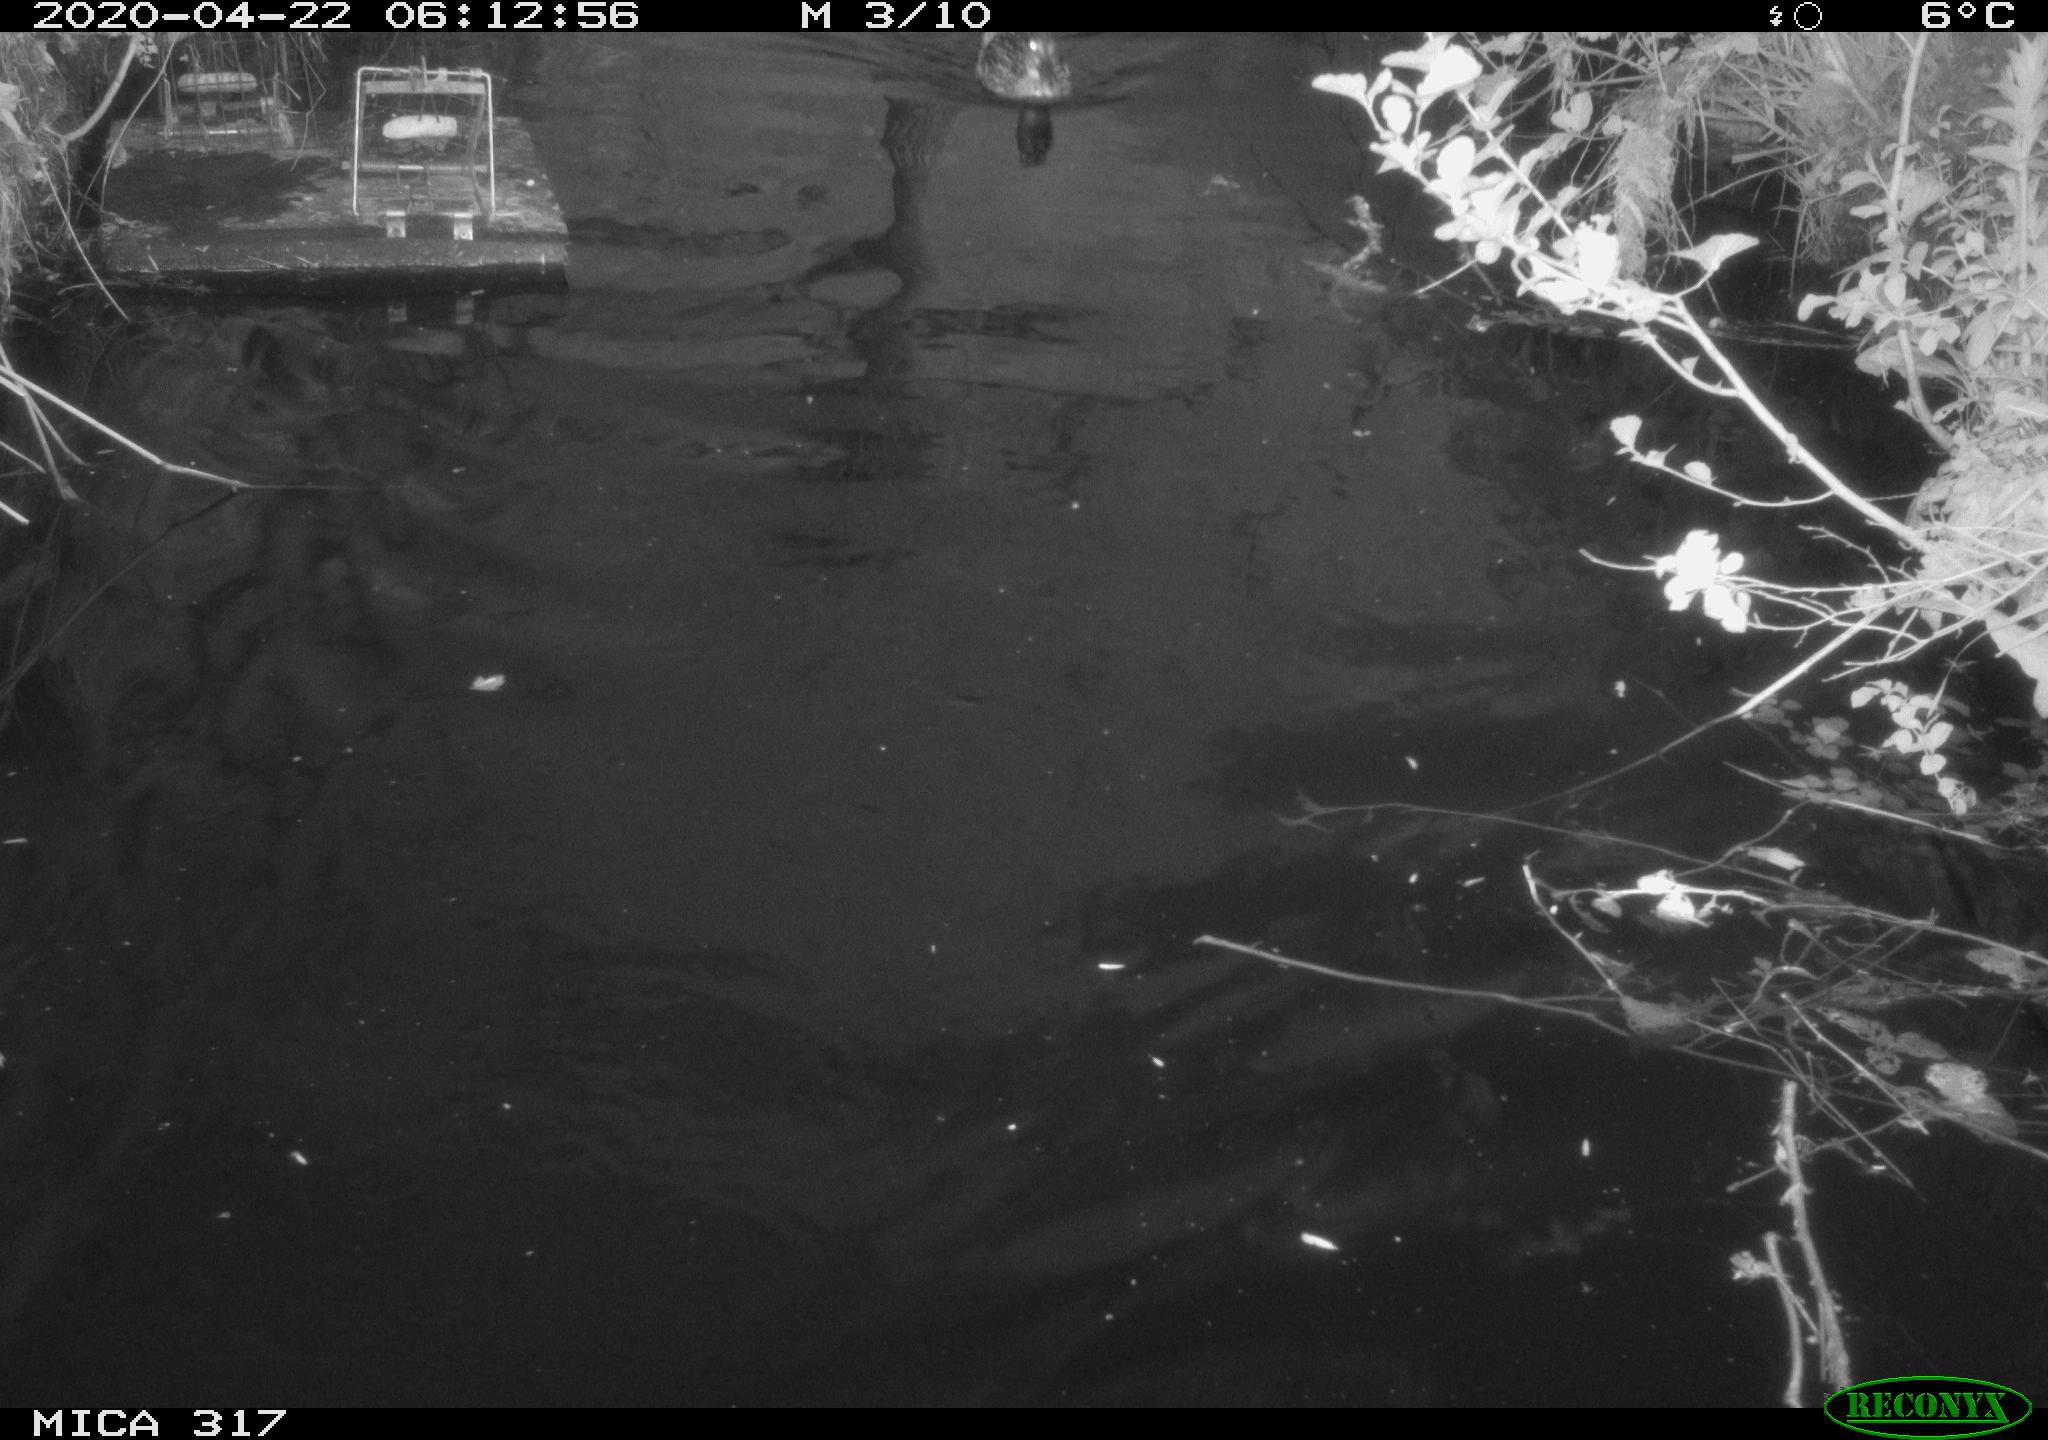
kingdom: Animalia
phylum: Chordata
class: Aves
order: Anseriformes
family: Anatidae
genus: Anas
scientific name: Anas platyrhynchos
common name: Mallard
